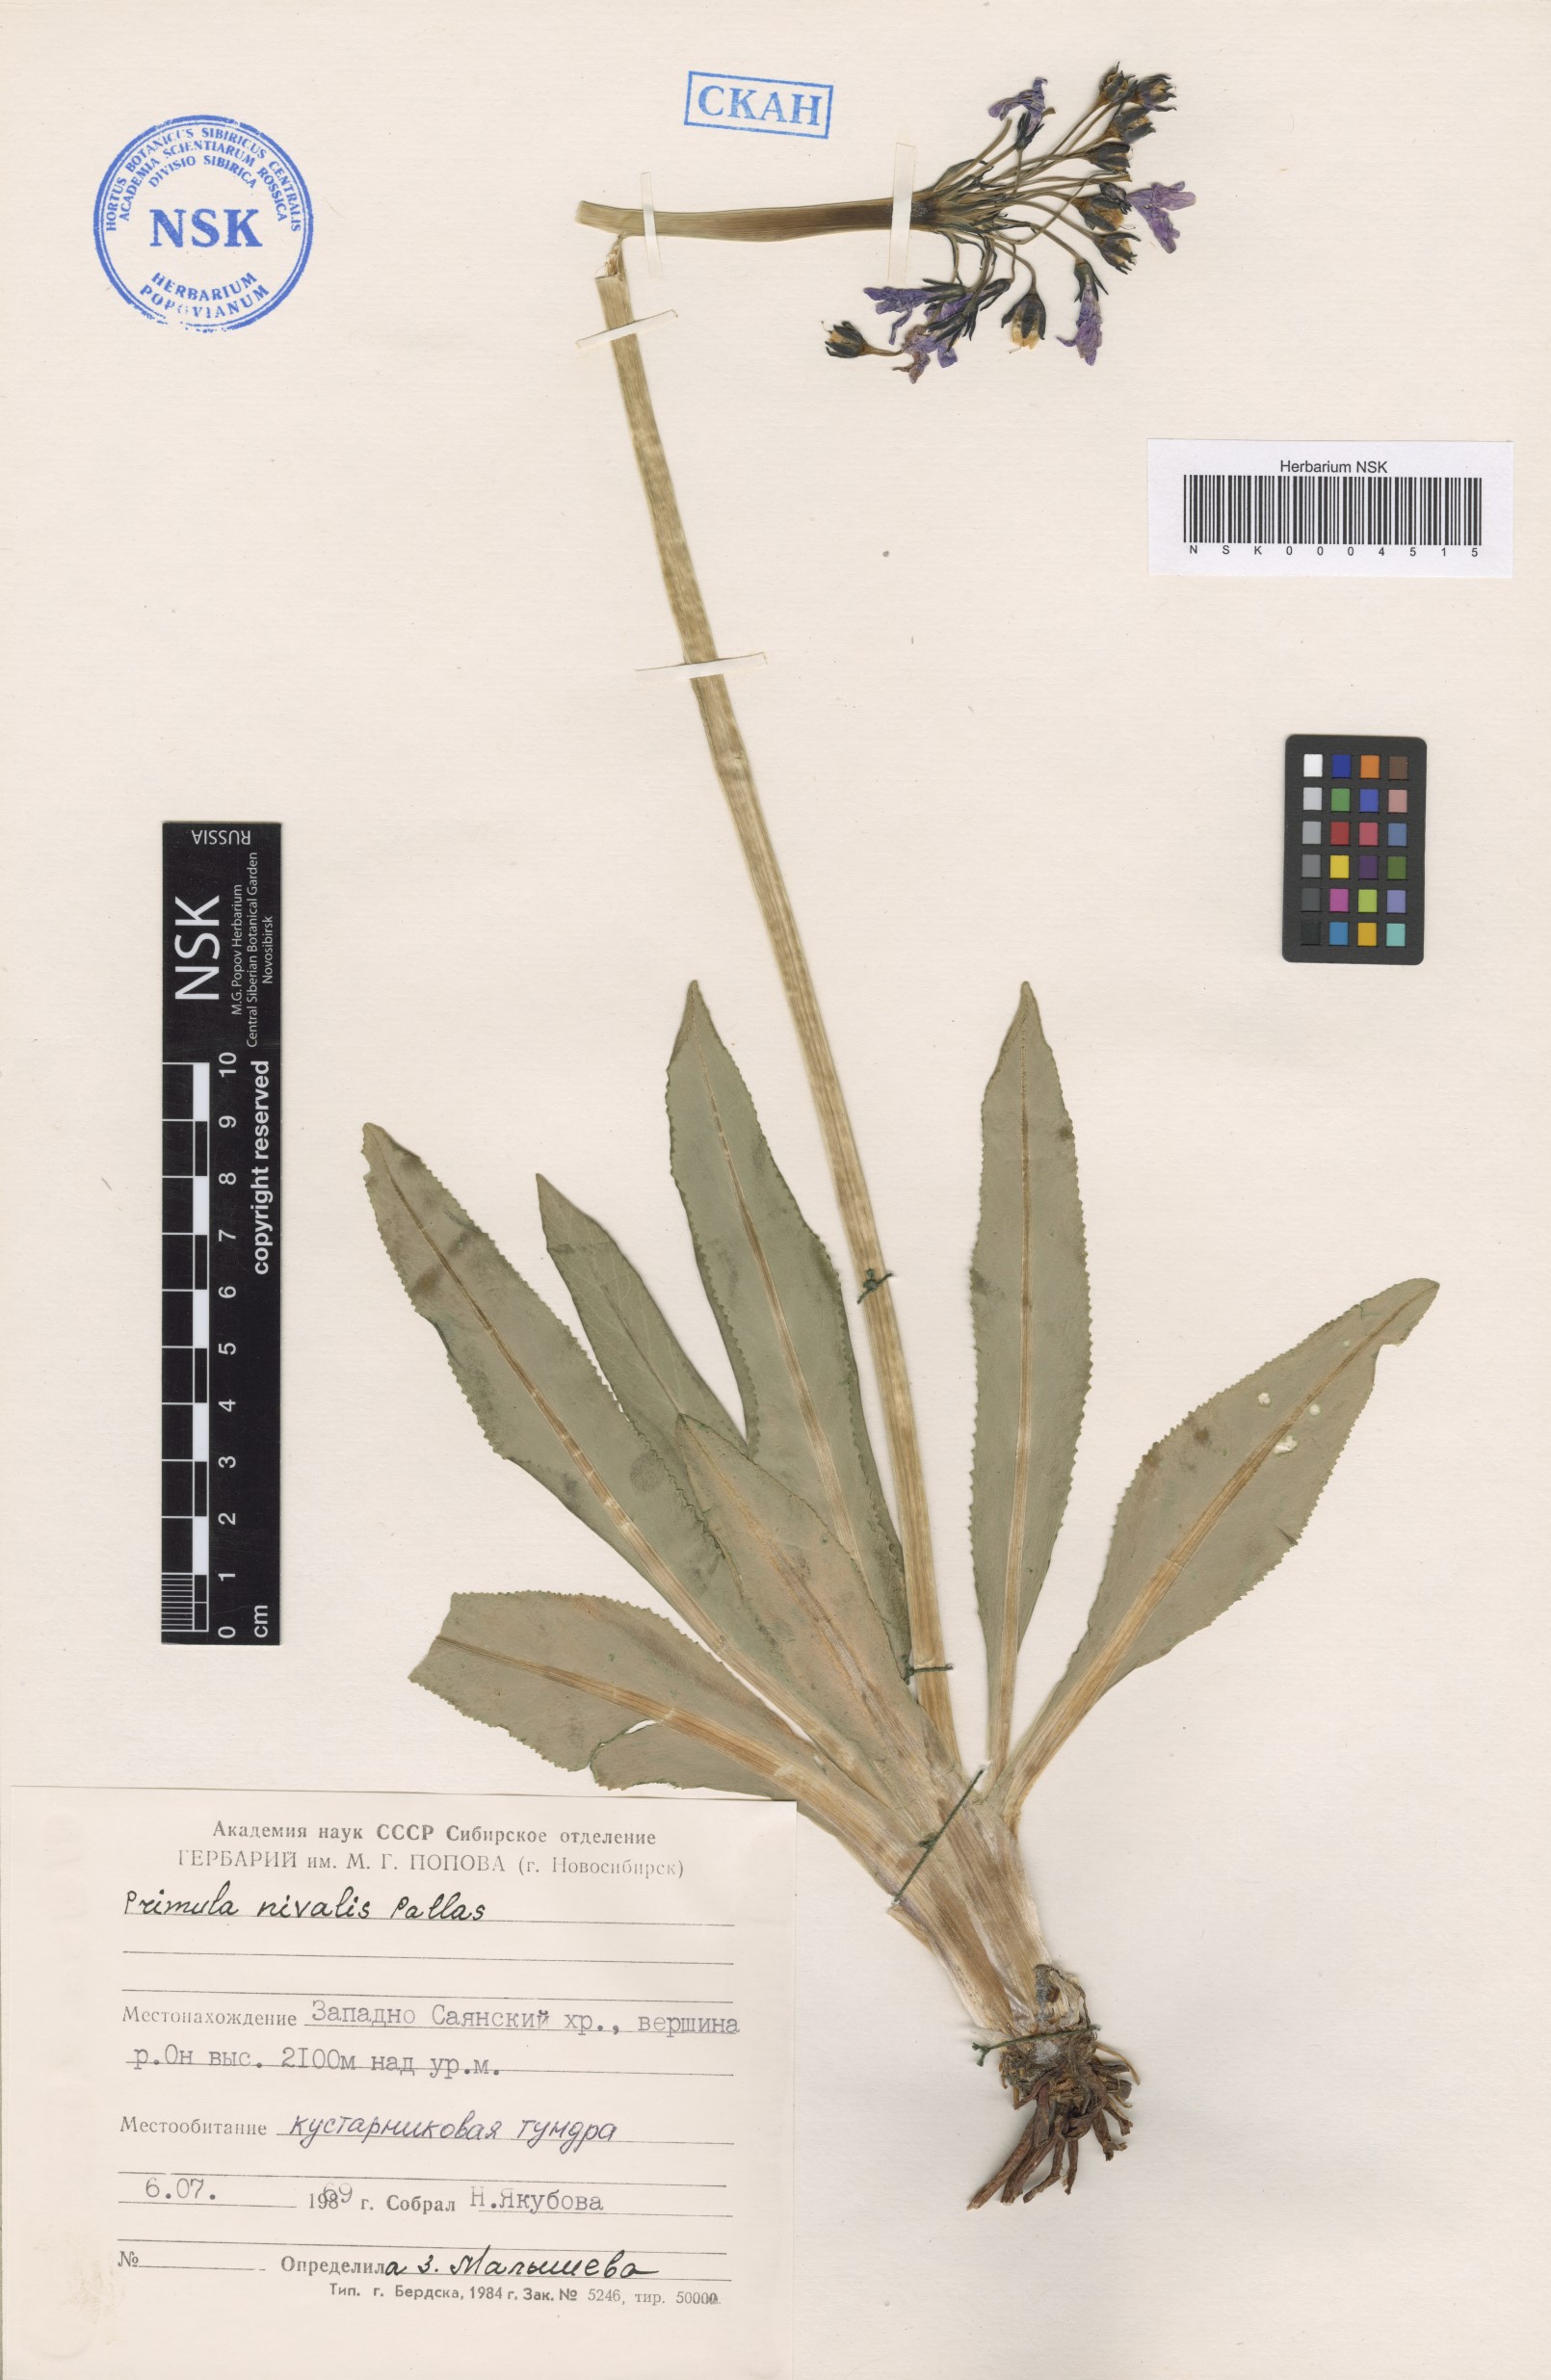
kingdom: Plantae
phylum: Tracheophyta
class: Magnoliopsida
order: Ericales
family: Primulaceae
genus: Primula
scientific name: Primula nivalis
